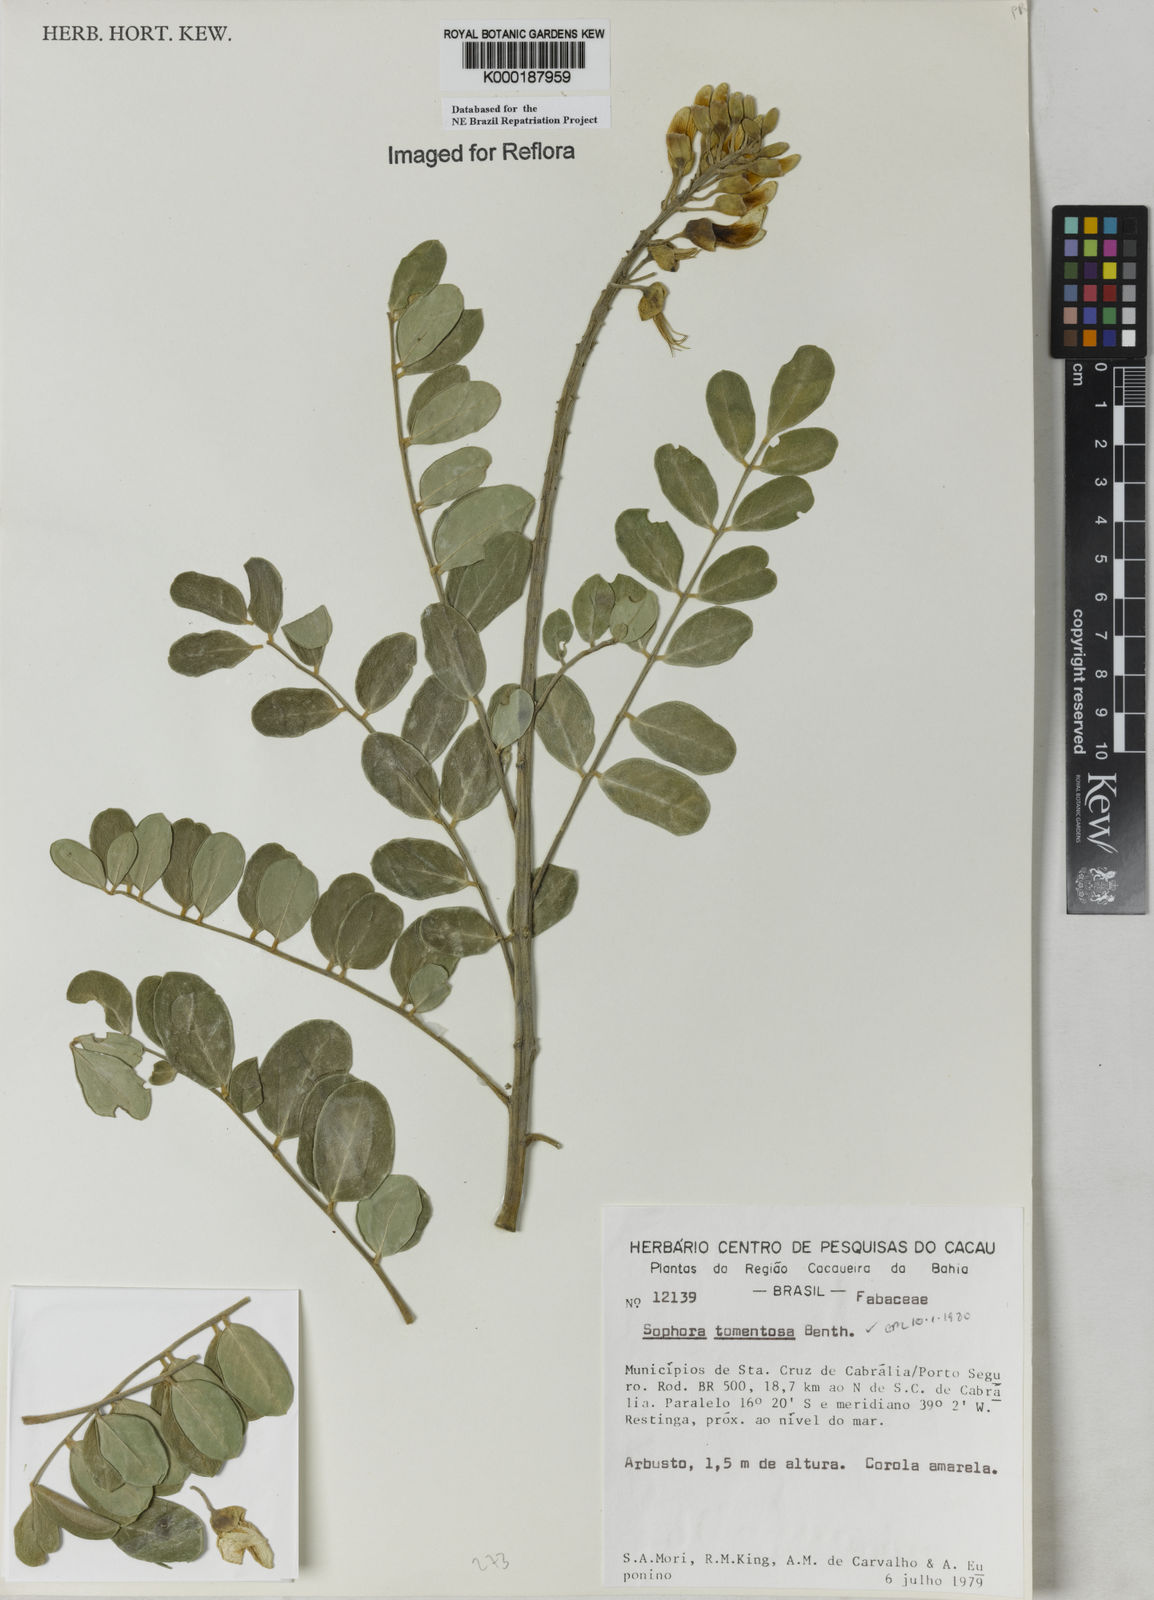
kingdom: Plantae
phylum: Tracheophyta
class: Magnoliopsida
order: Fabales
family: Fabaceae
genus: Sophora
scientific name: Sophora tomentosa
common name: Yellow necklacepod
